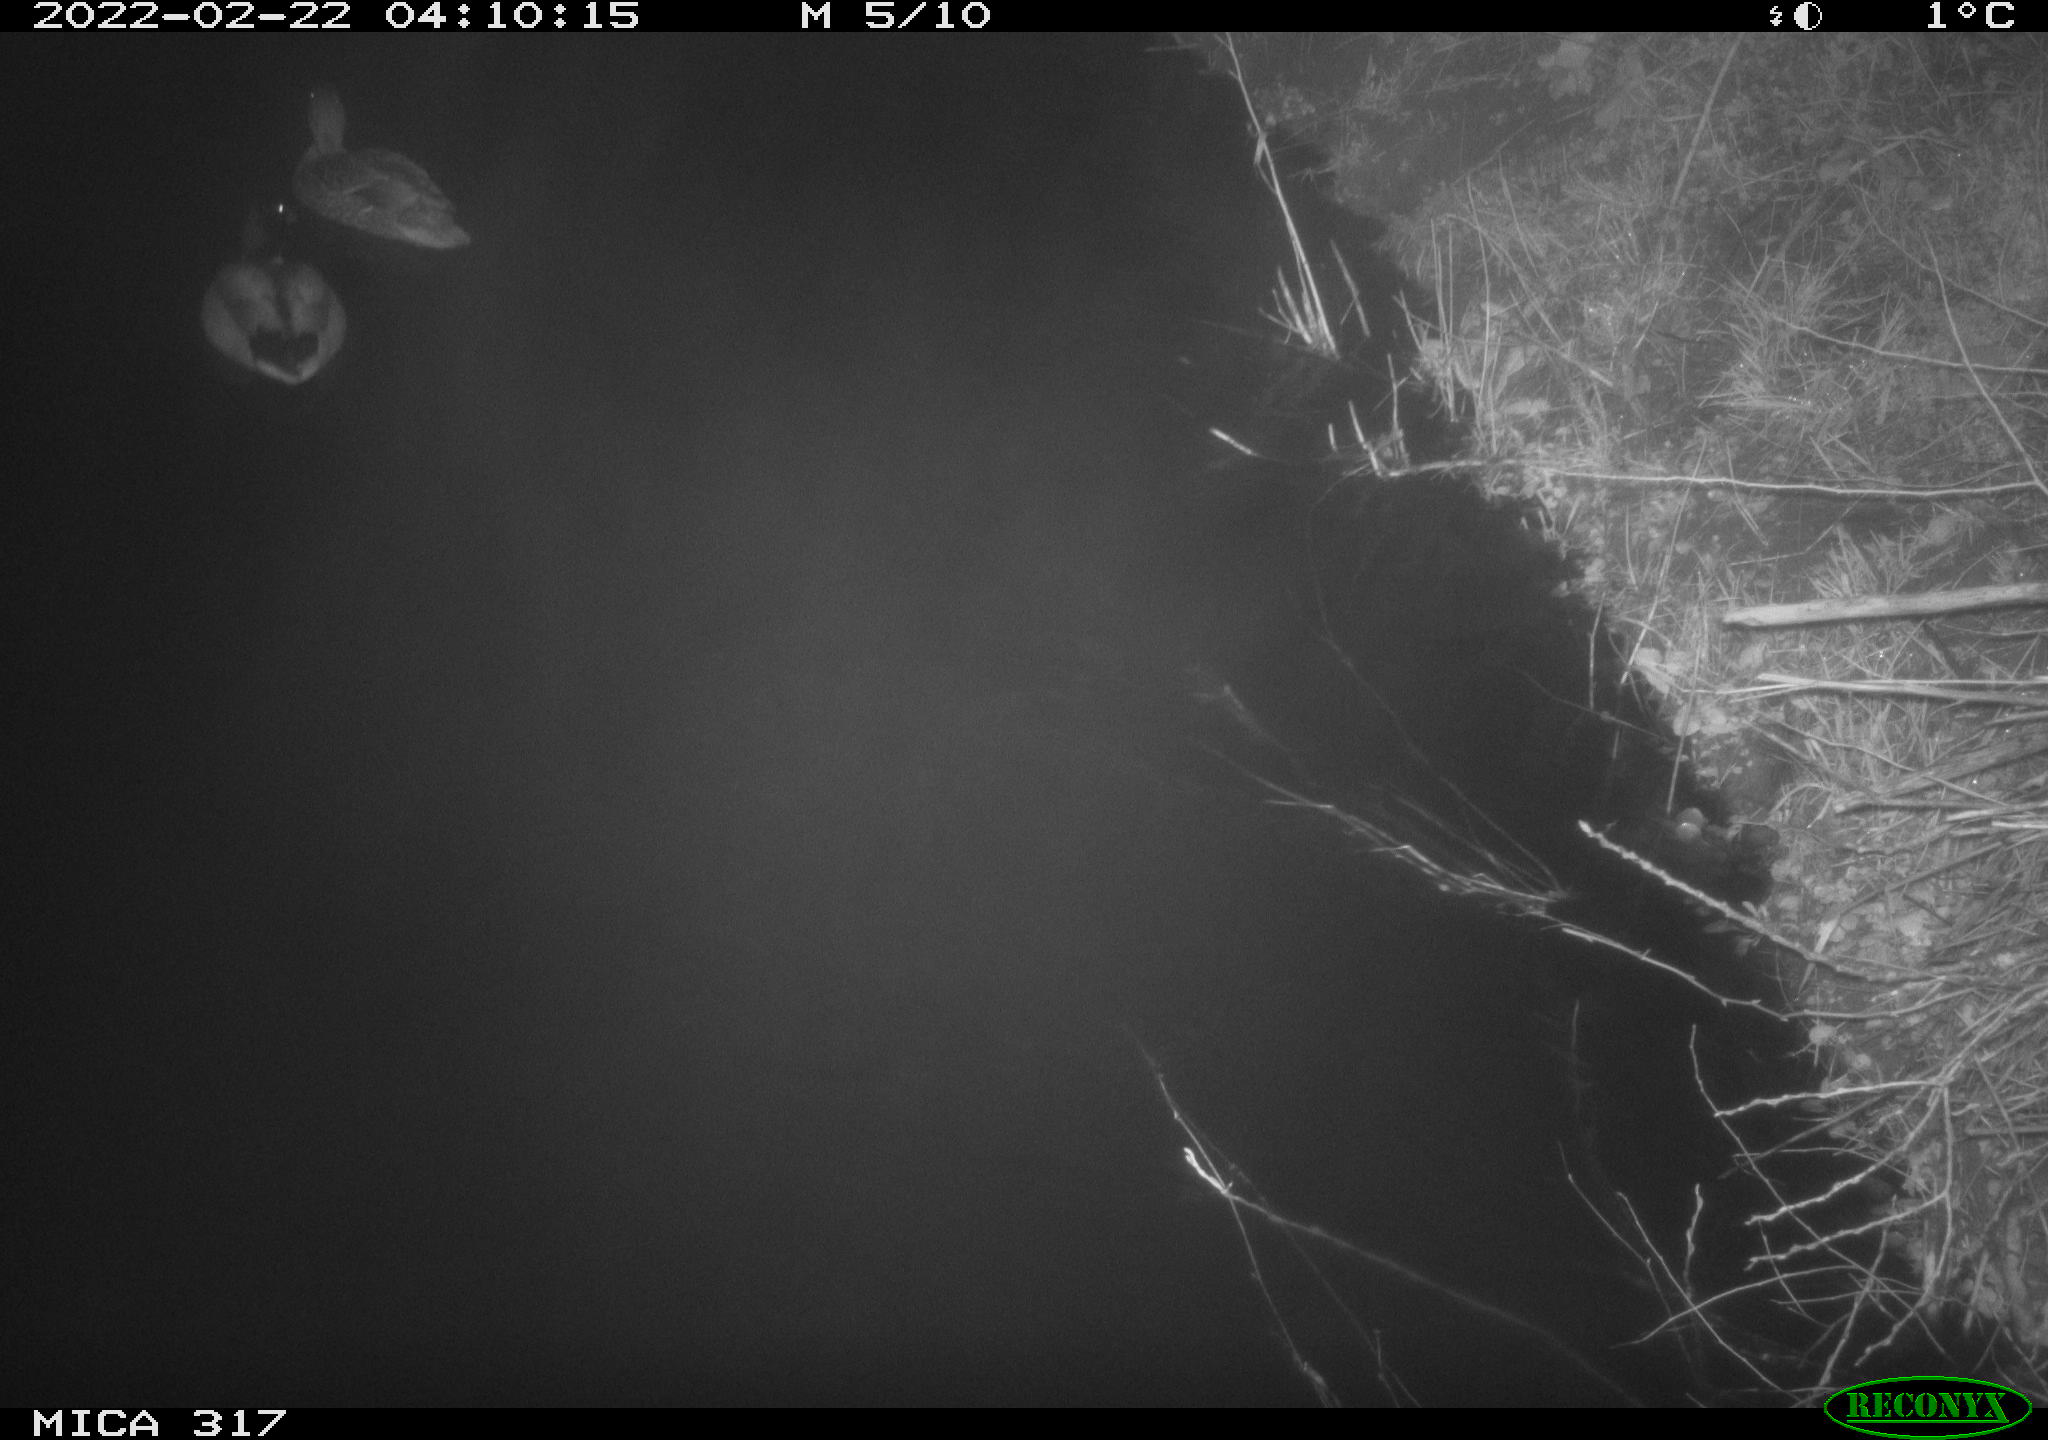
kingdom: Animalia
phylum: Chordata
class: Aves
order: Anseriformes
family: Anatidae
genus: Anas
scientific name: Anas platyrhynchos
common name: Mallard
